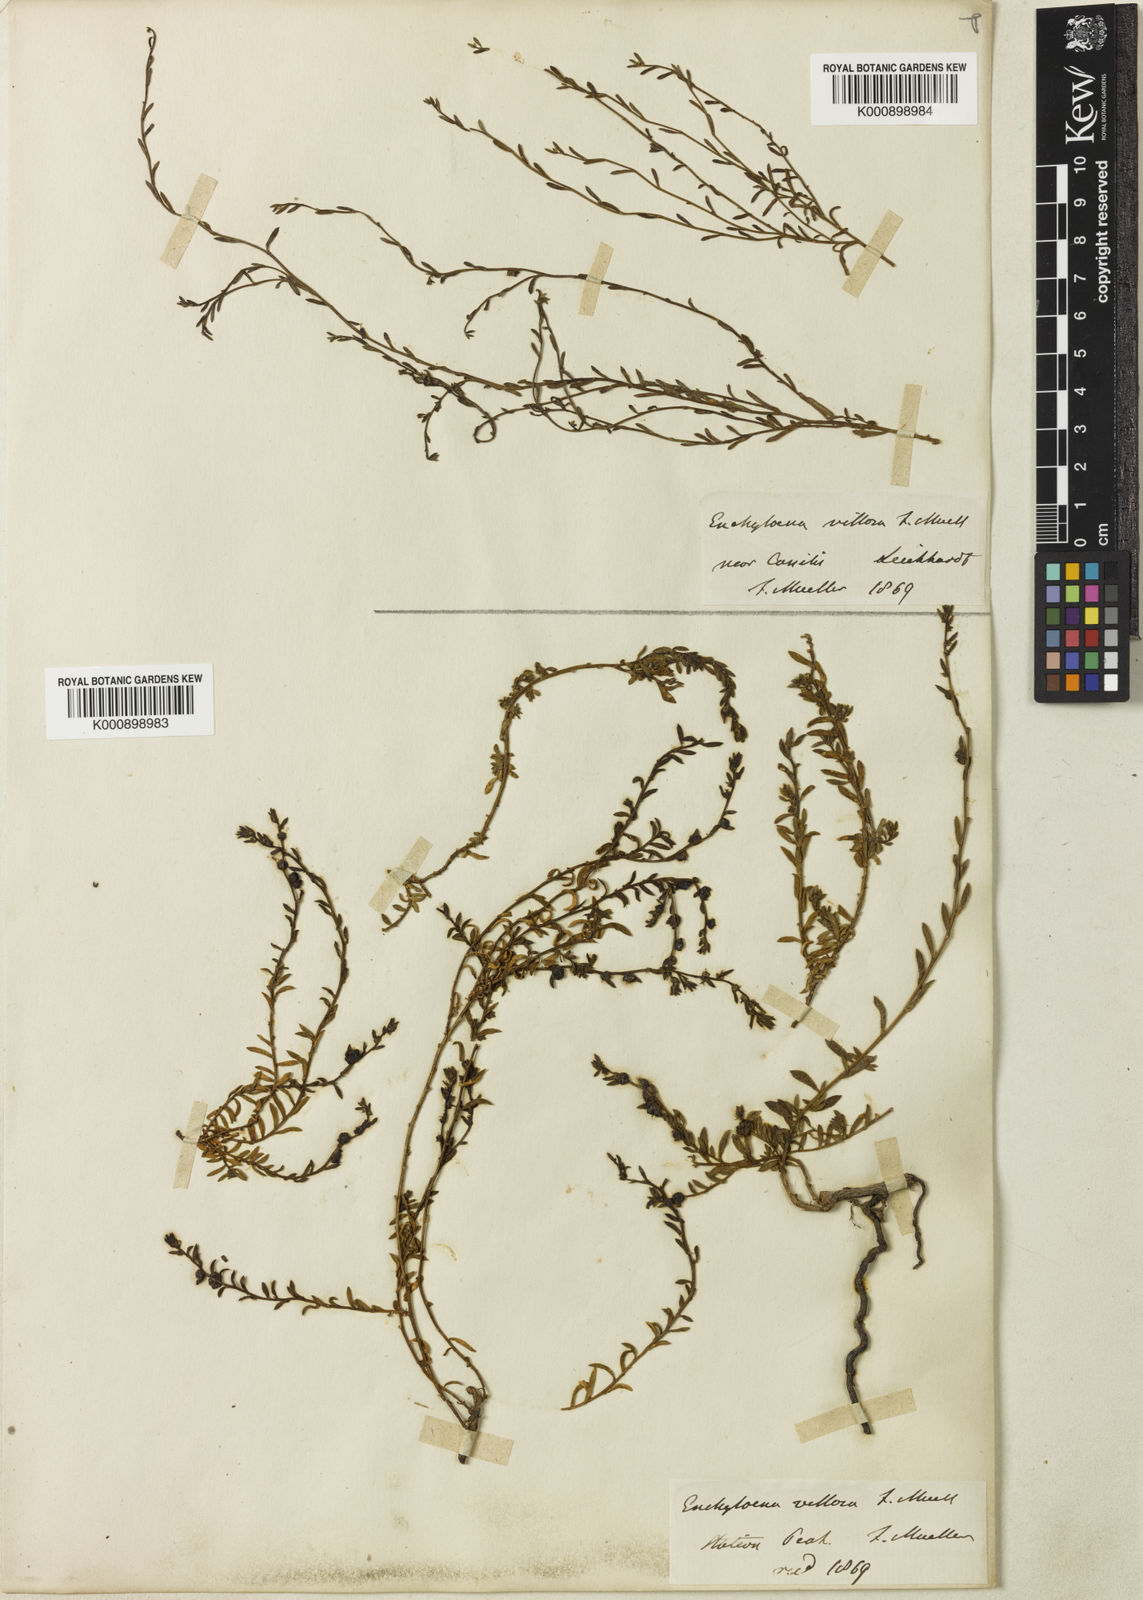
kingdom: Plantae
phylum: Tracheophyta
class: Magnoliopsida
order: Caryophyllales
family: Amaranthaceae
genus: Maireana
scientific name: Maireana enchylaenoides
